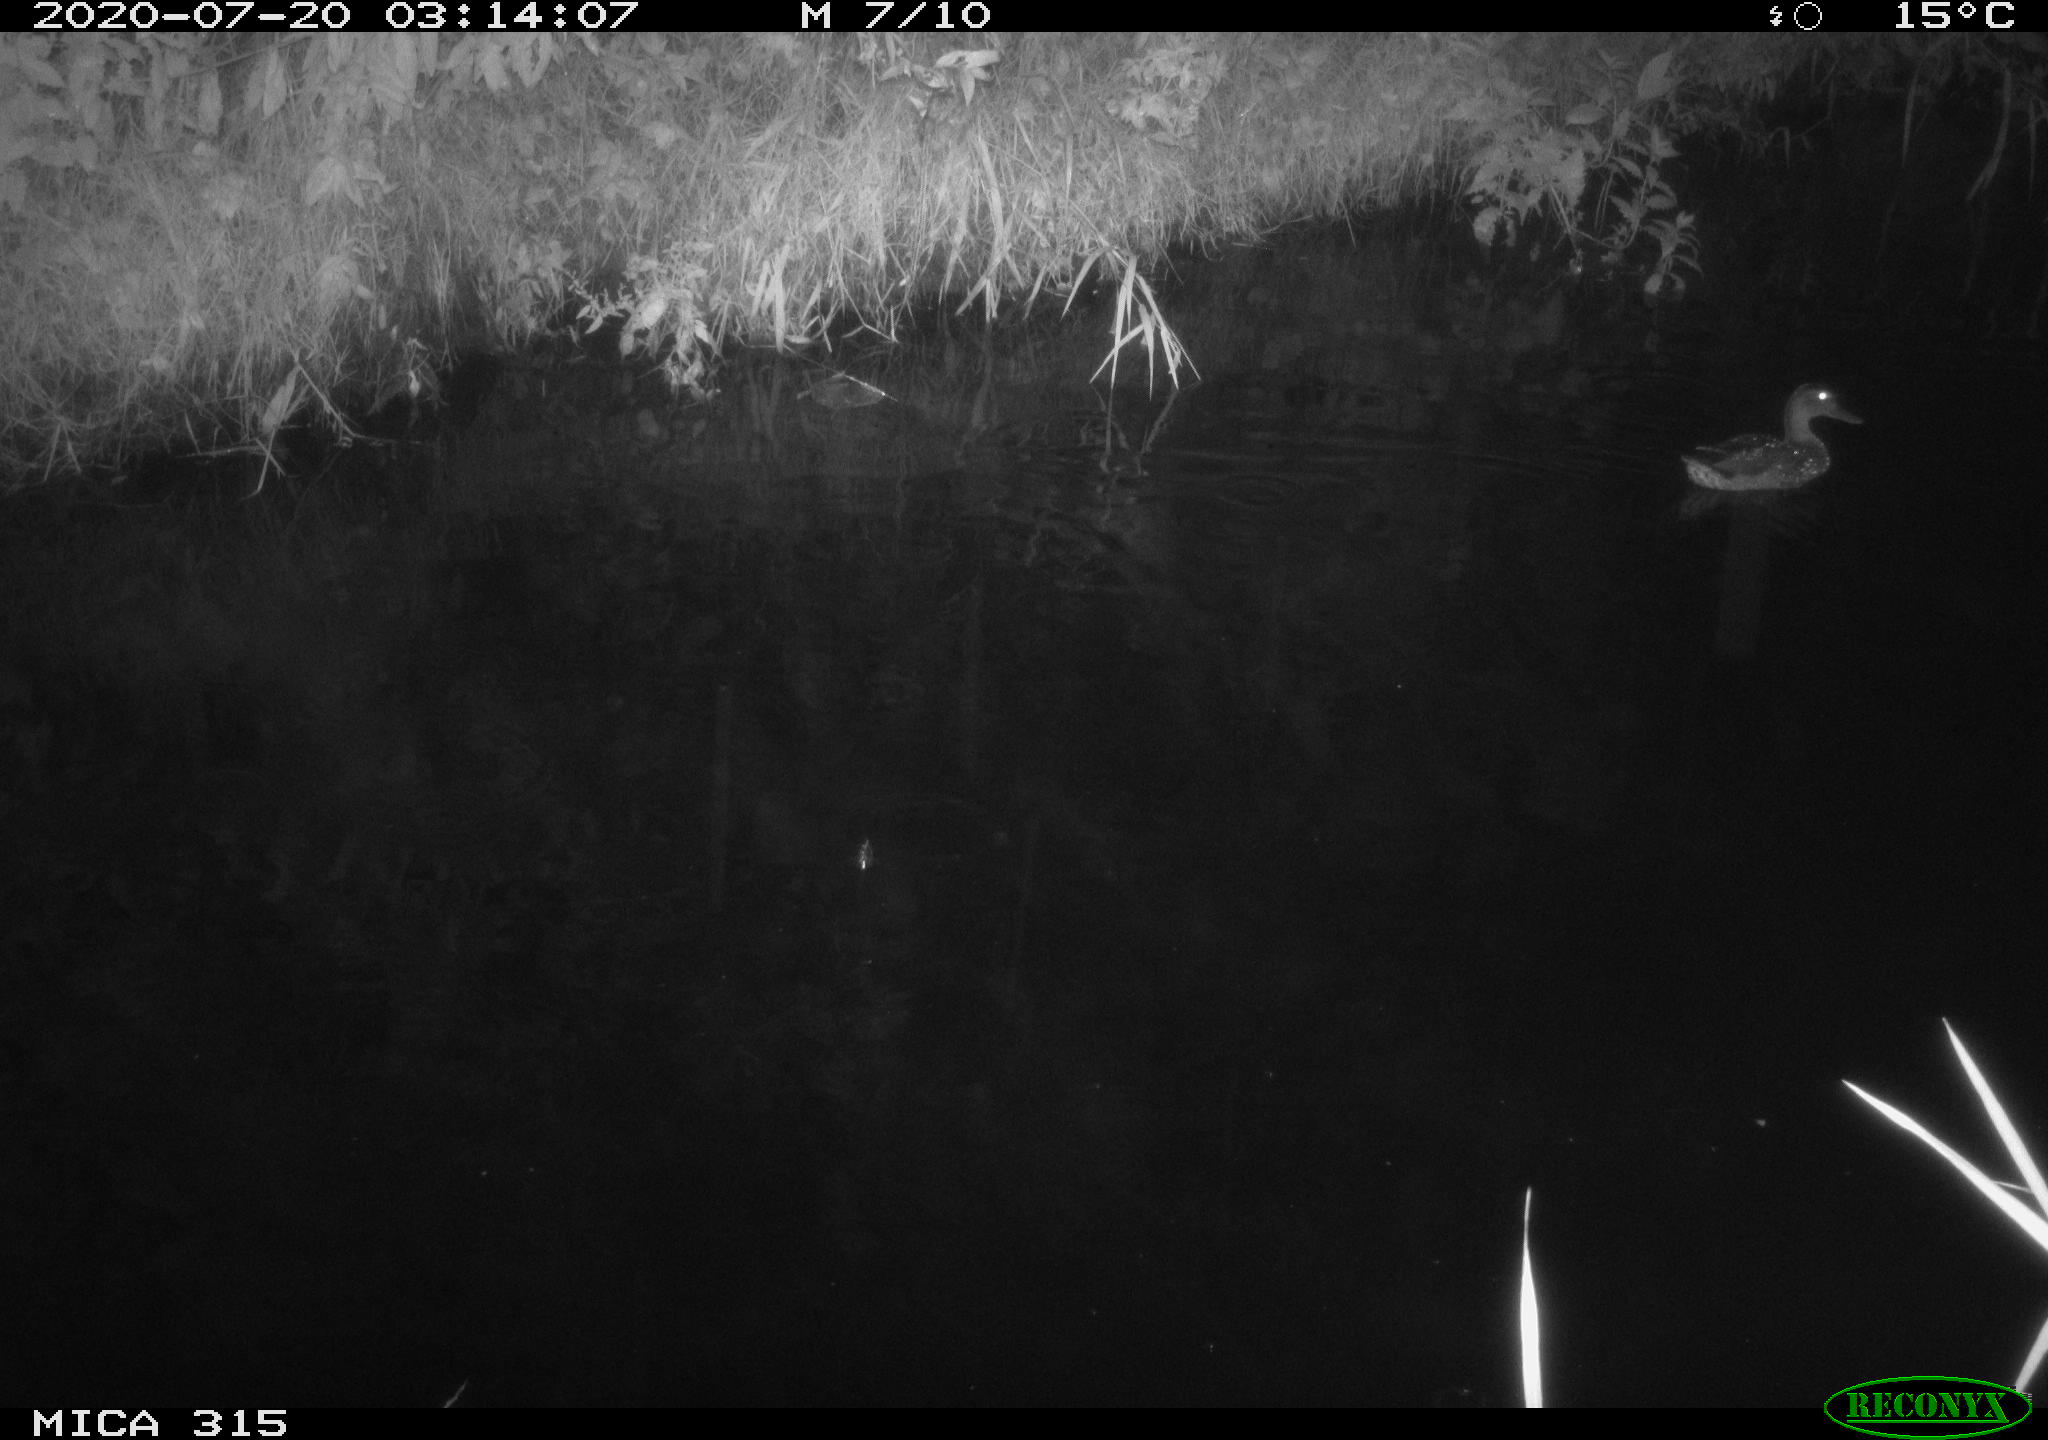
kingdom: Animalia
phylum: Chordata
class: Aves
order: Anseriformes
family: Anatidae
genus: Anas
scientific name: Anas platyrhynchos
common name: Mallard
